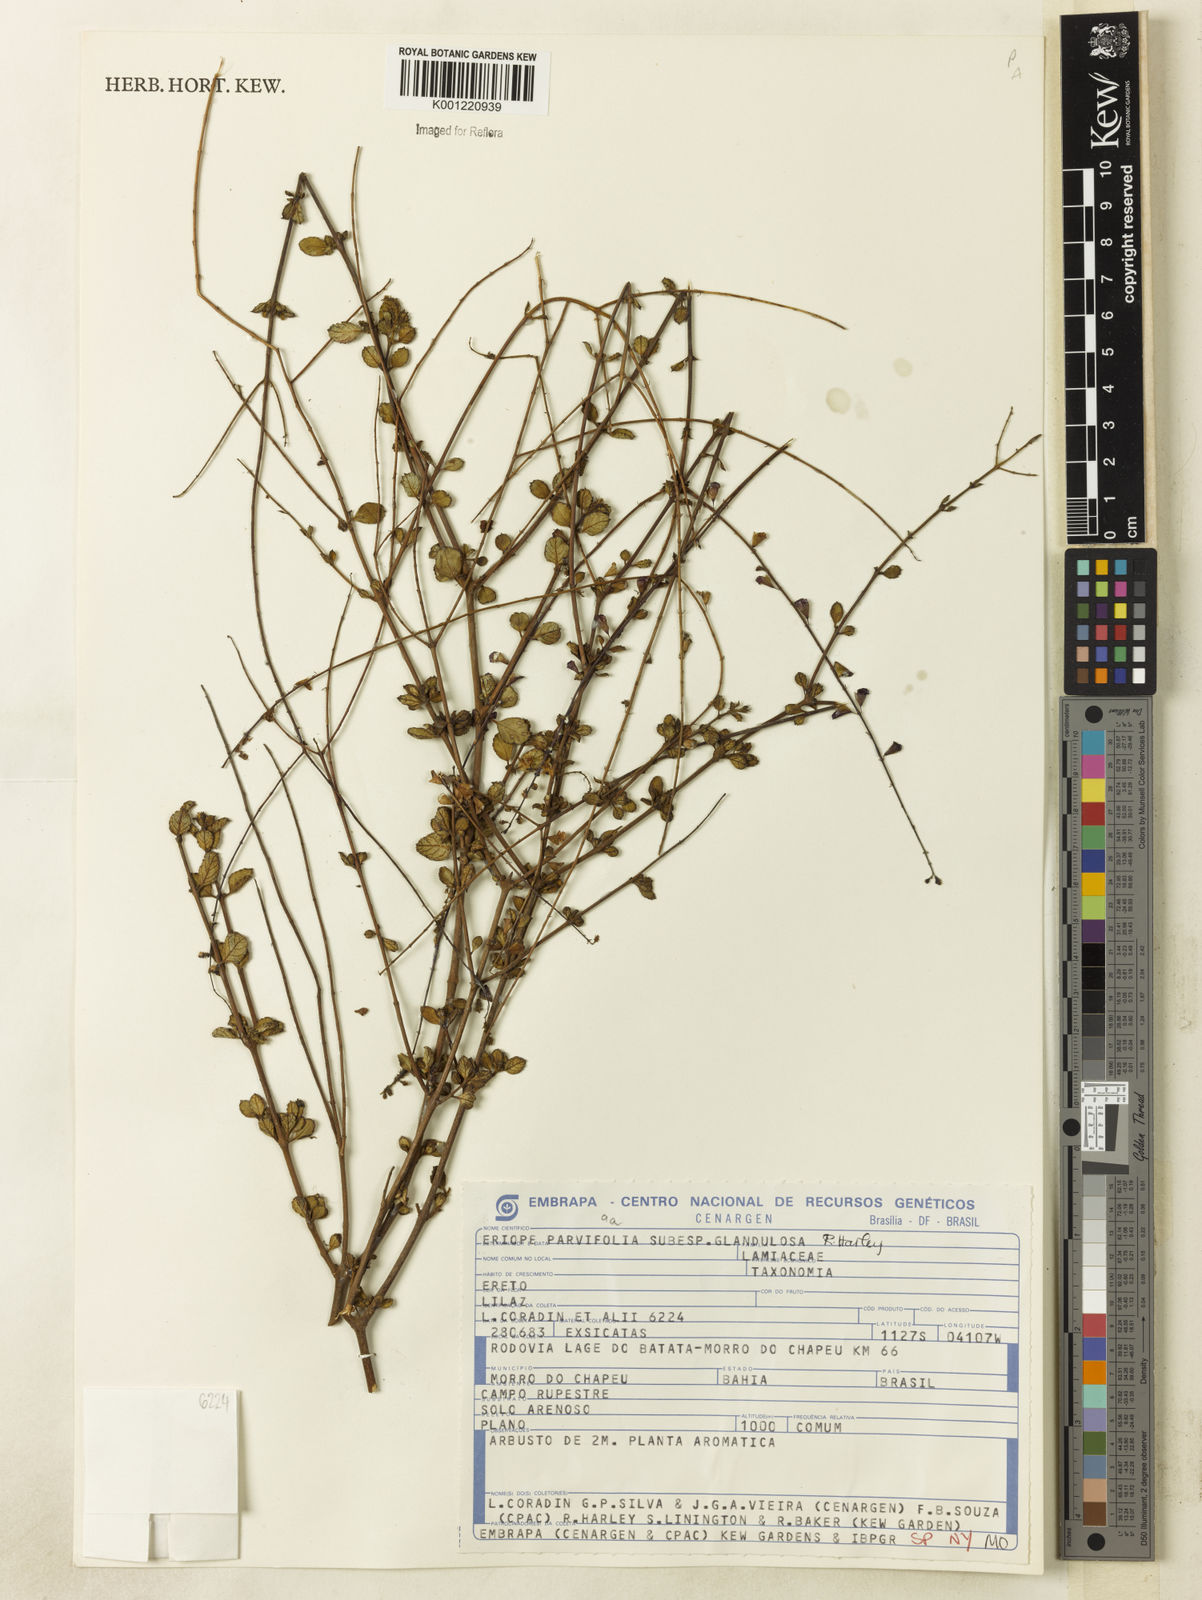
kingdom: Plantae
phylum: Tracheophyta
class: Magnoliopsida
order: Lamiales
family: Lamiaceae
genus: Eriope
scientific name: Eriope glandulosa
